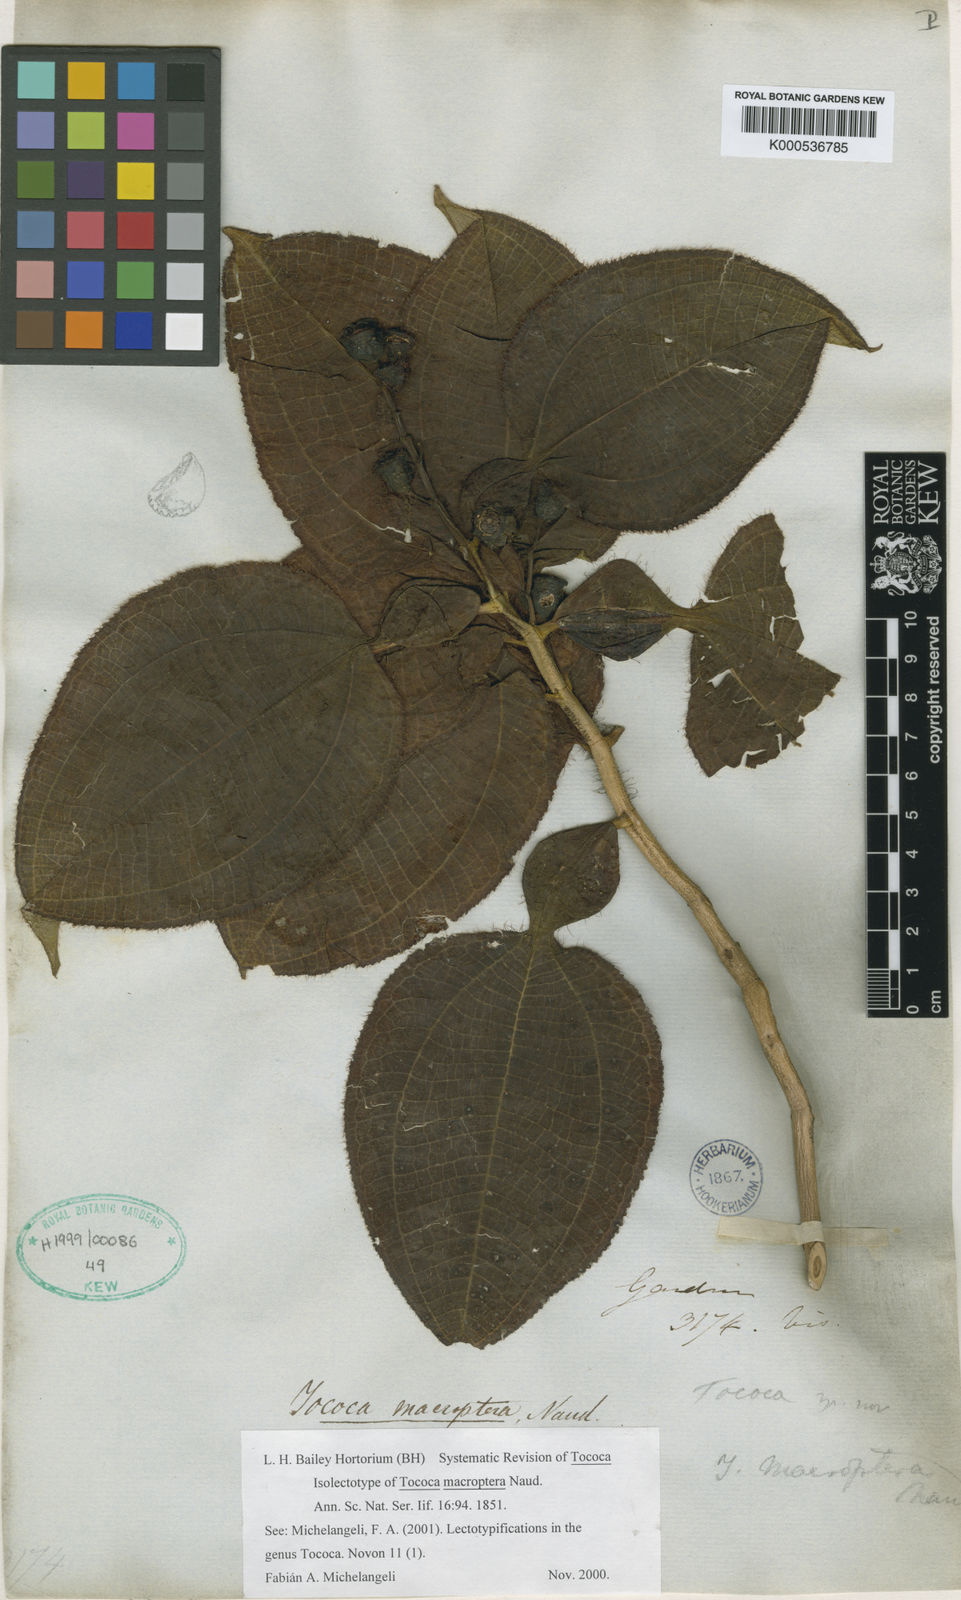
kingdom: Plantae
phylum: Tracheophyta
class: Magnoliopsida
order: Myrtales
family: Melastomataceae
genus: Miconia
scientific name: Miconia macroptera
